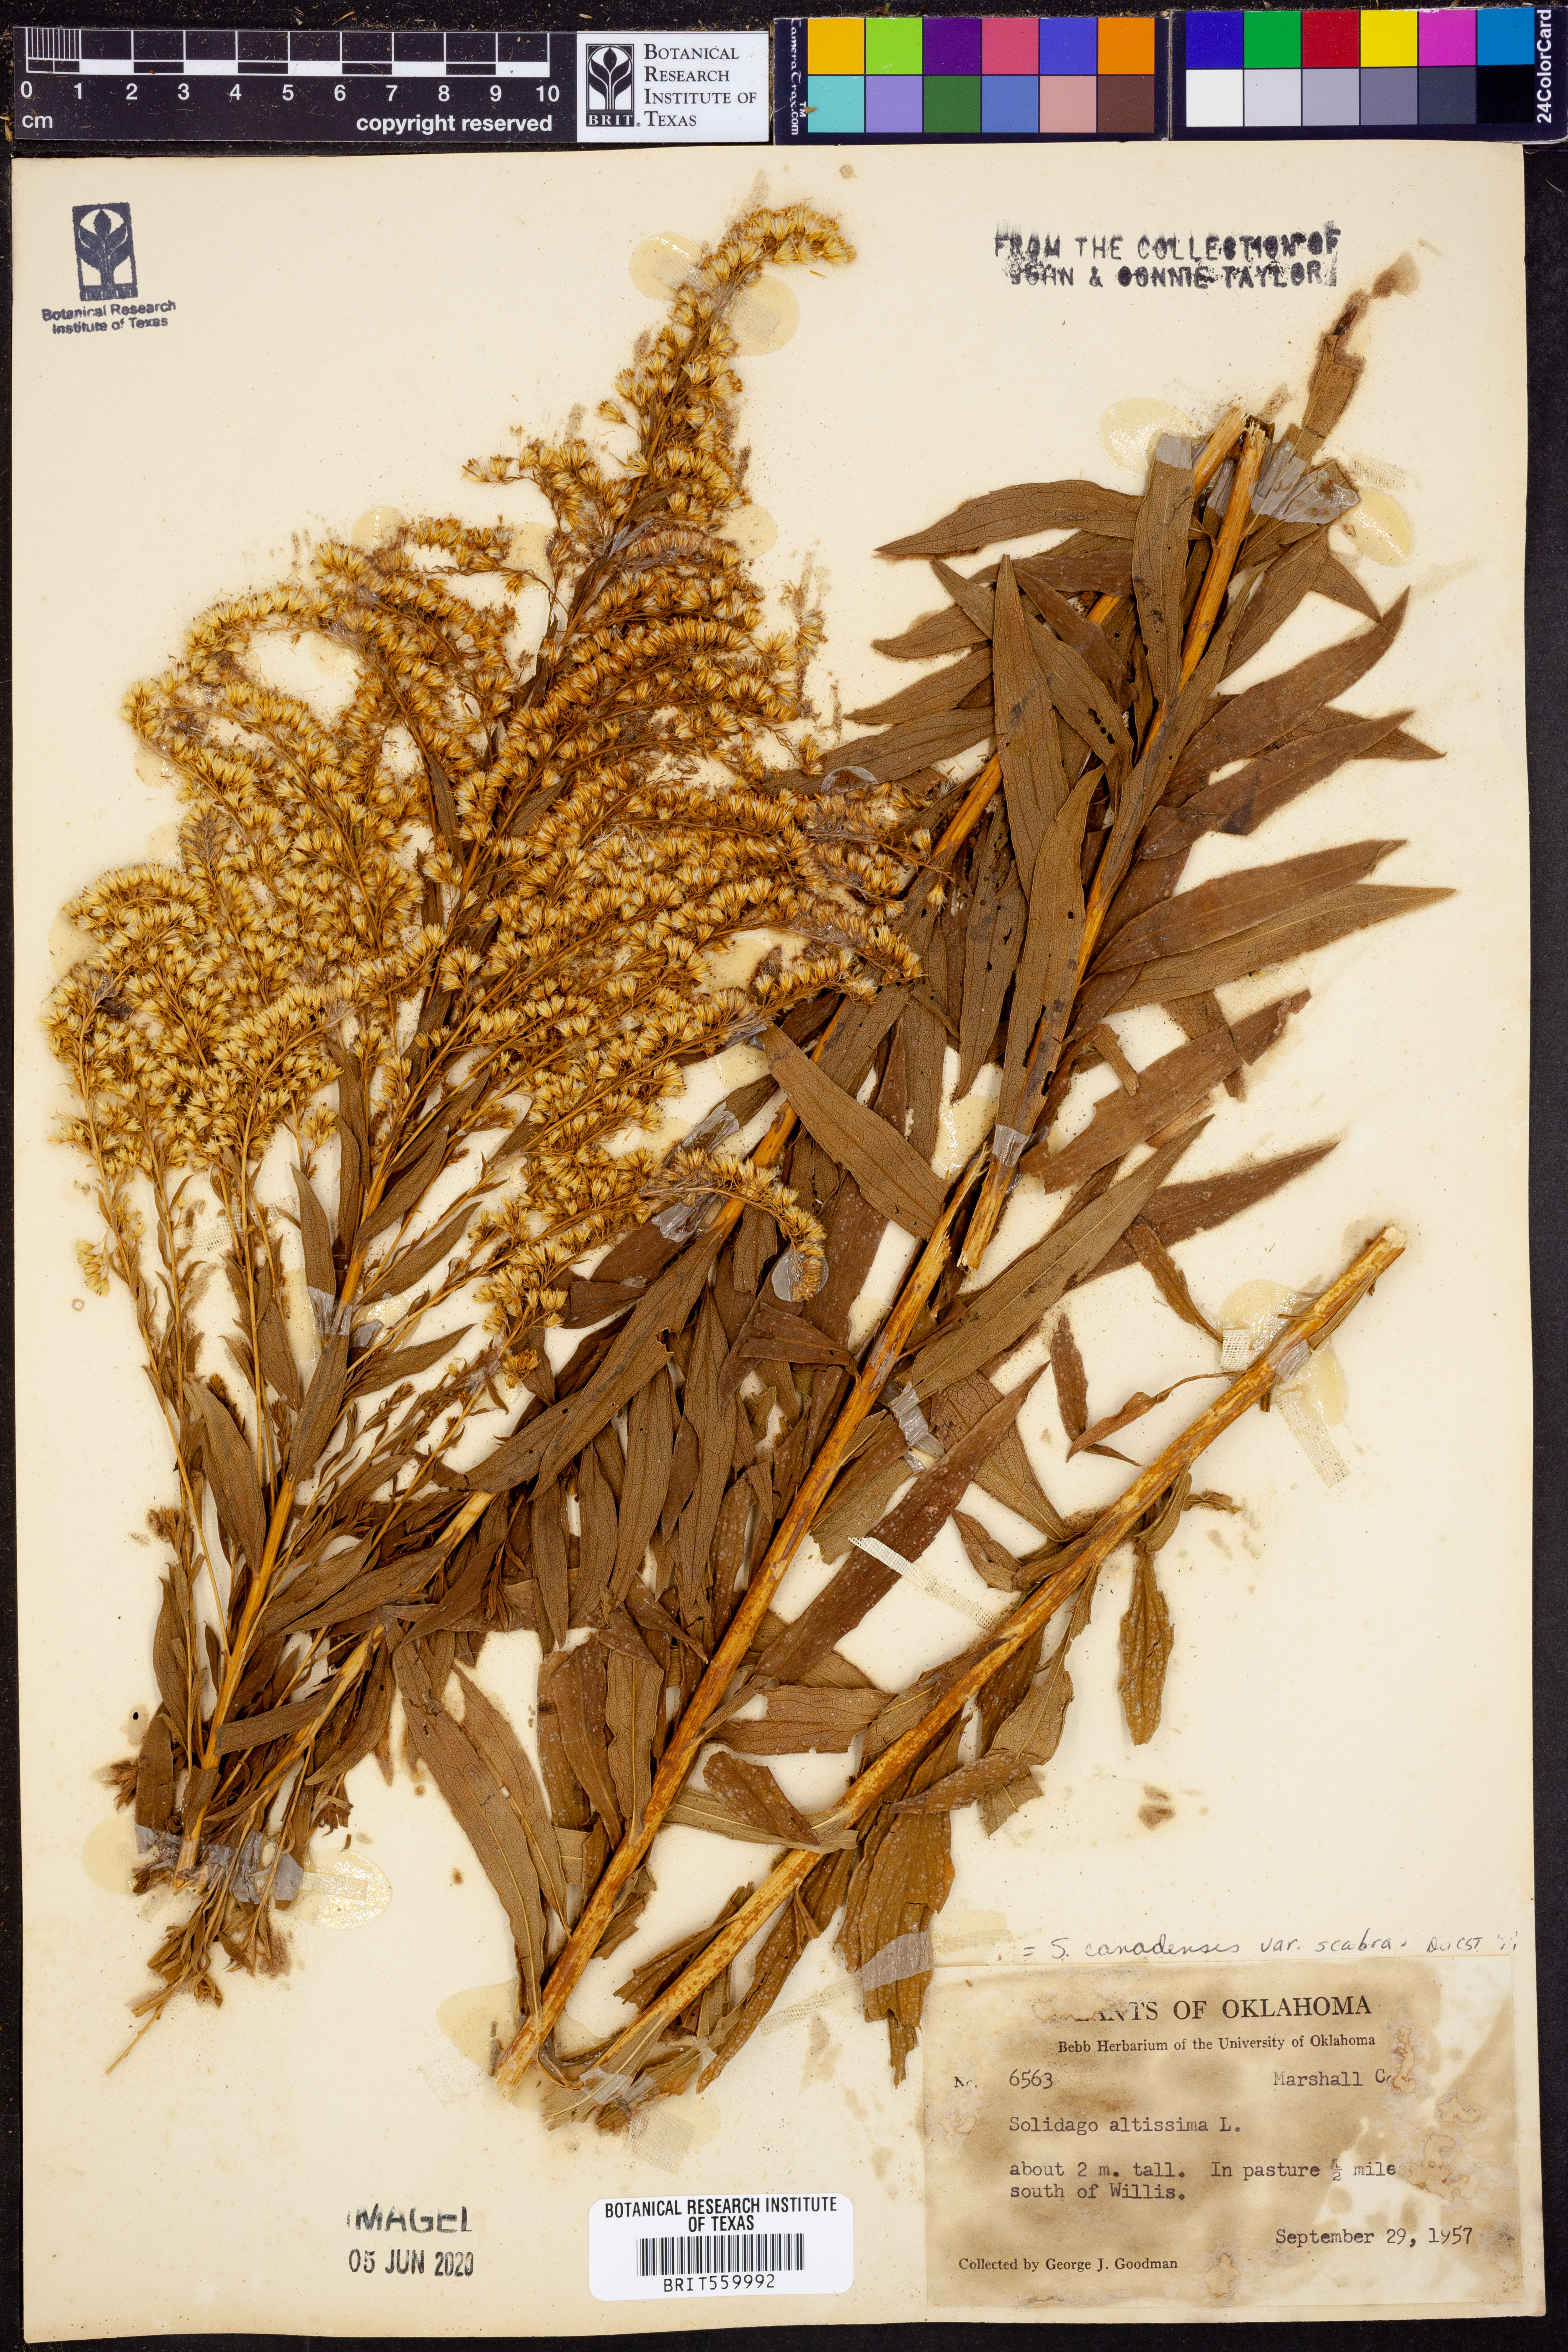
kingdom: Plantae
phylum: Tracheophyta
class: Magnoliopsida
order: Asterales
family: Asteraceae
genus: Solidago
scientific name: Solidago altissima
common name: Late goldenrod
